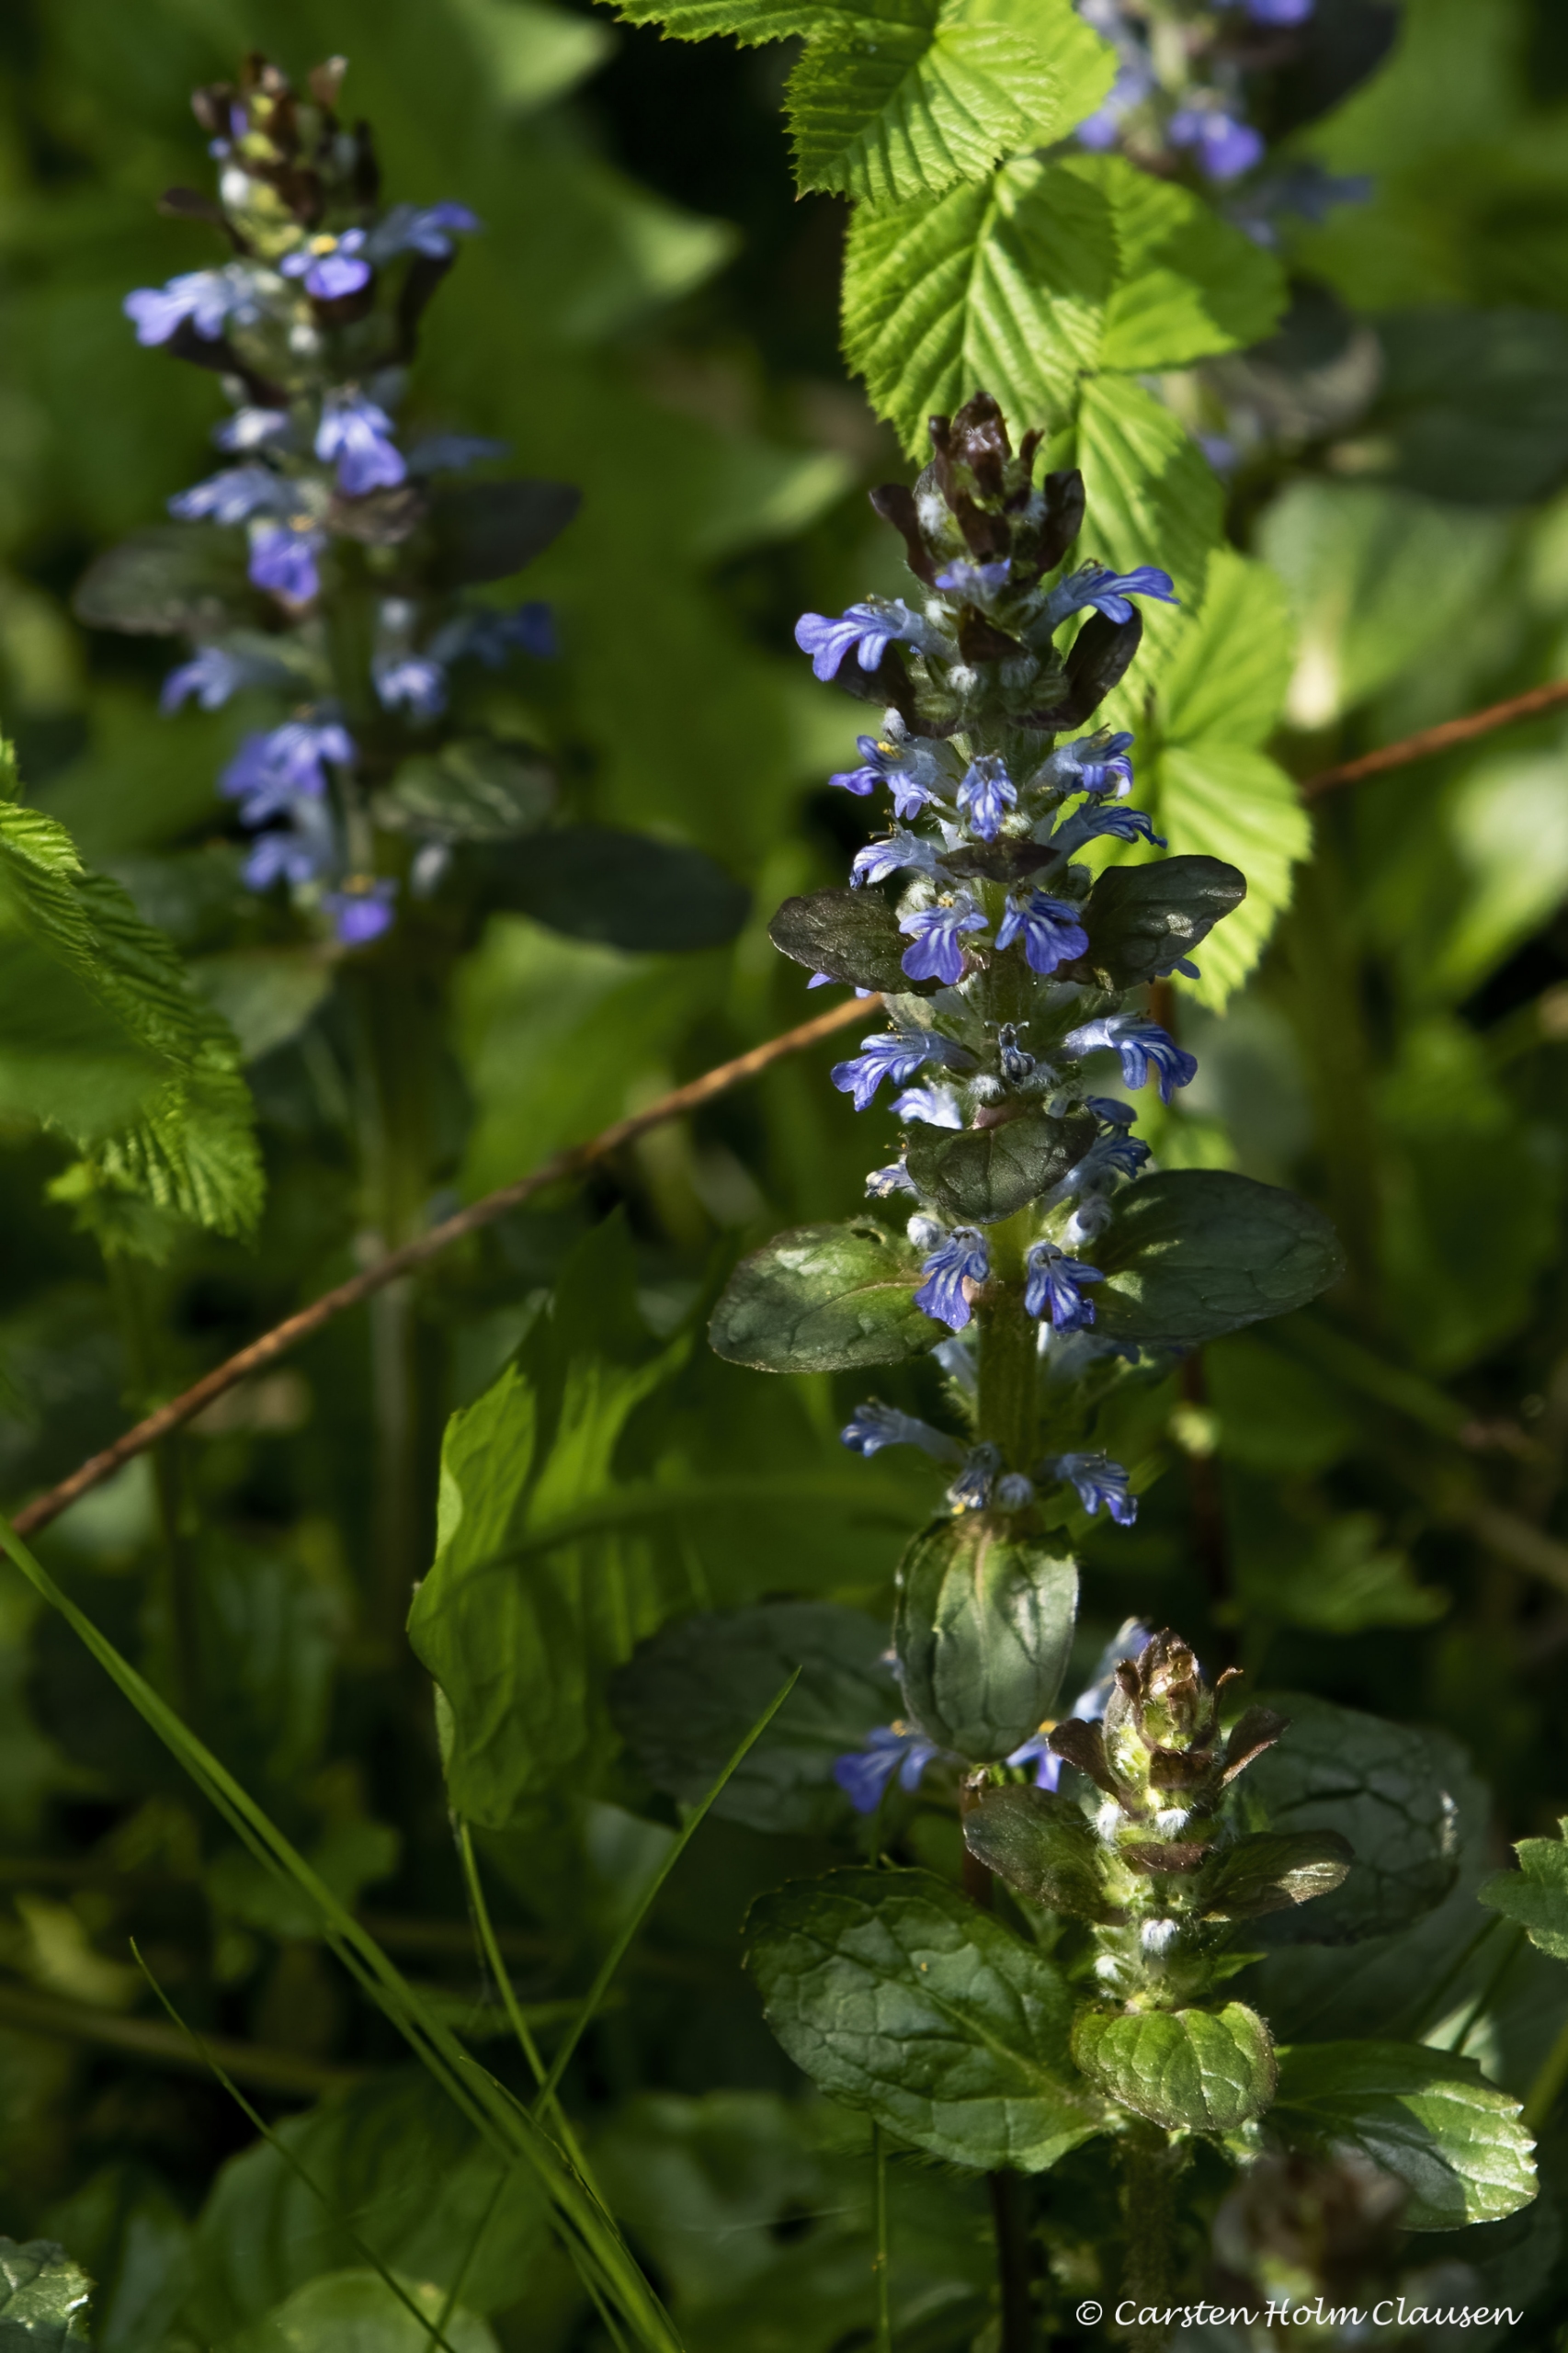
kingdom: Plantae
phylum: Tracheophyta
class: Magnoliopsida
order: Lamiales
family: Lamiaceae
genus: Ajuga
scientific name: Ajuga reptans
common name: Krybende læbeløs
